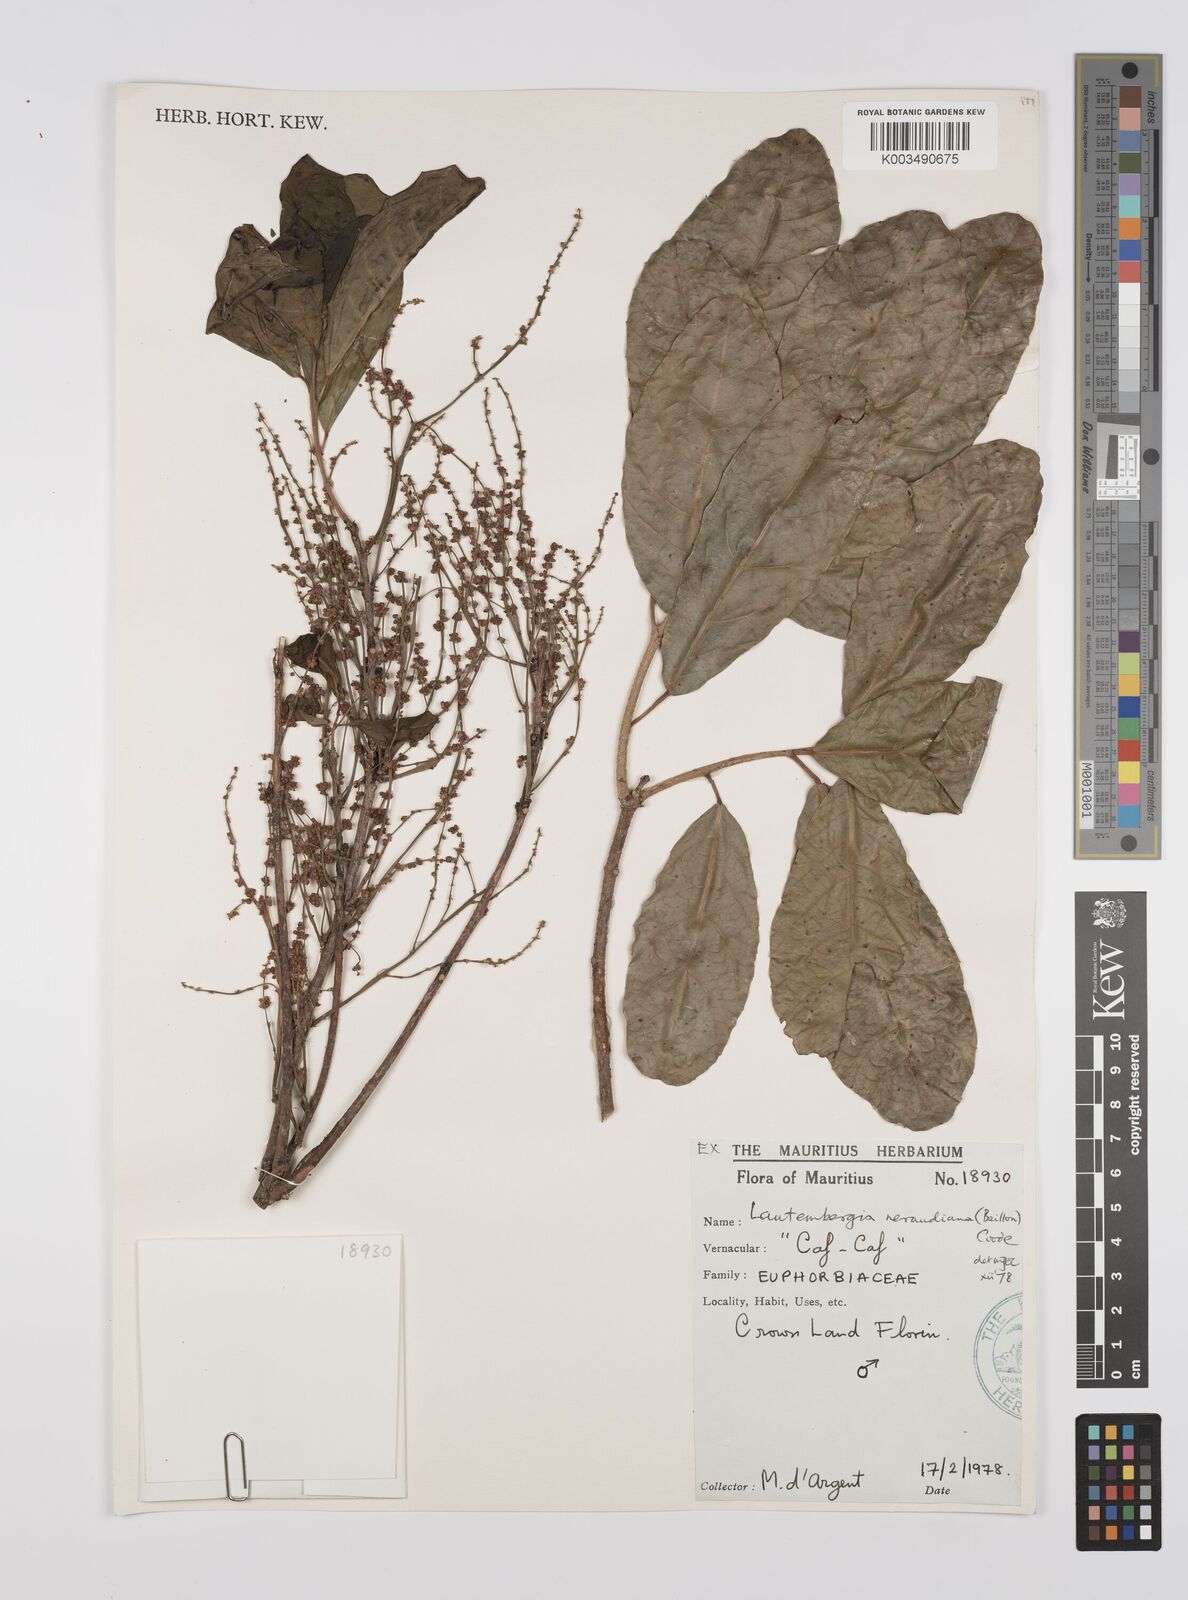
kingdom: Plantae
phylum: Tracheophyta
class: Magnoliopsida
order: Malpighiales
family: Euphorbiaceae
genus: Orfilea
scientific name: Orfilea neraudiana
